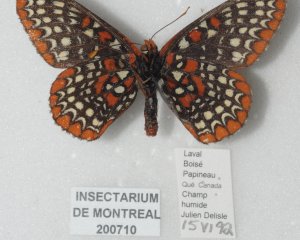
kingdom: Animalia
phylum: Arthropoda
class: Insecta
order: Lepidoptera
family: Nymphalidae
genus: Euphydryas
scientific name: Euphydryas phaeton
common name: Baltimore Checkerspot
